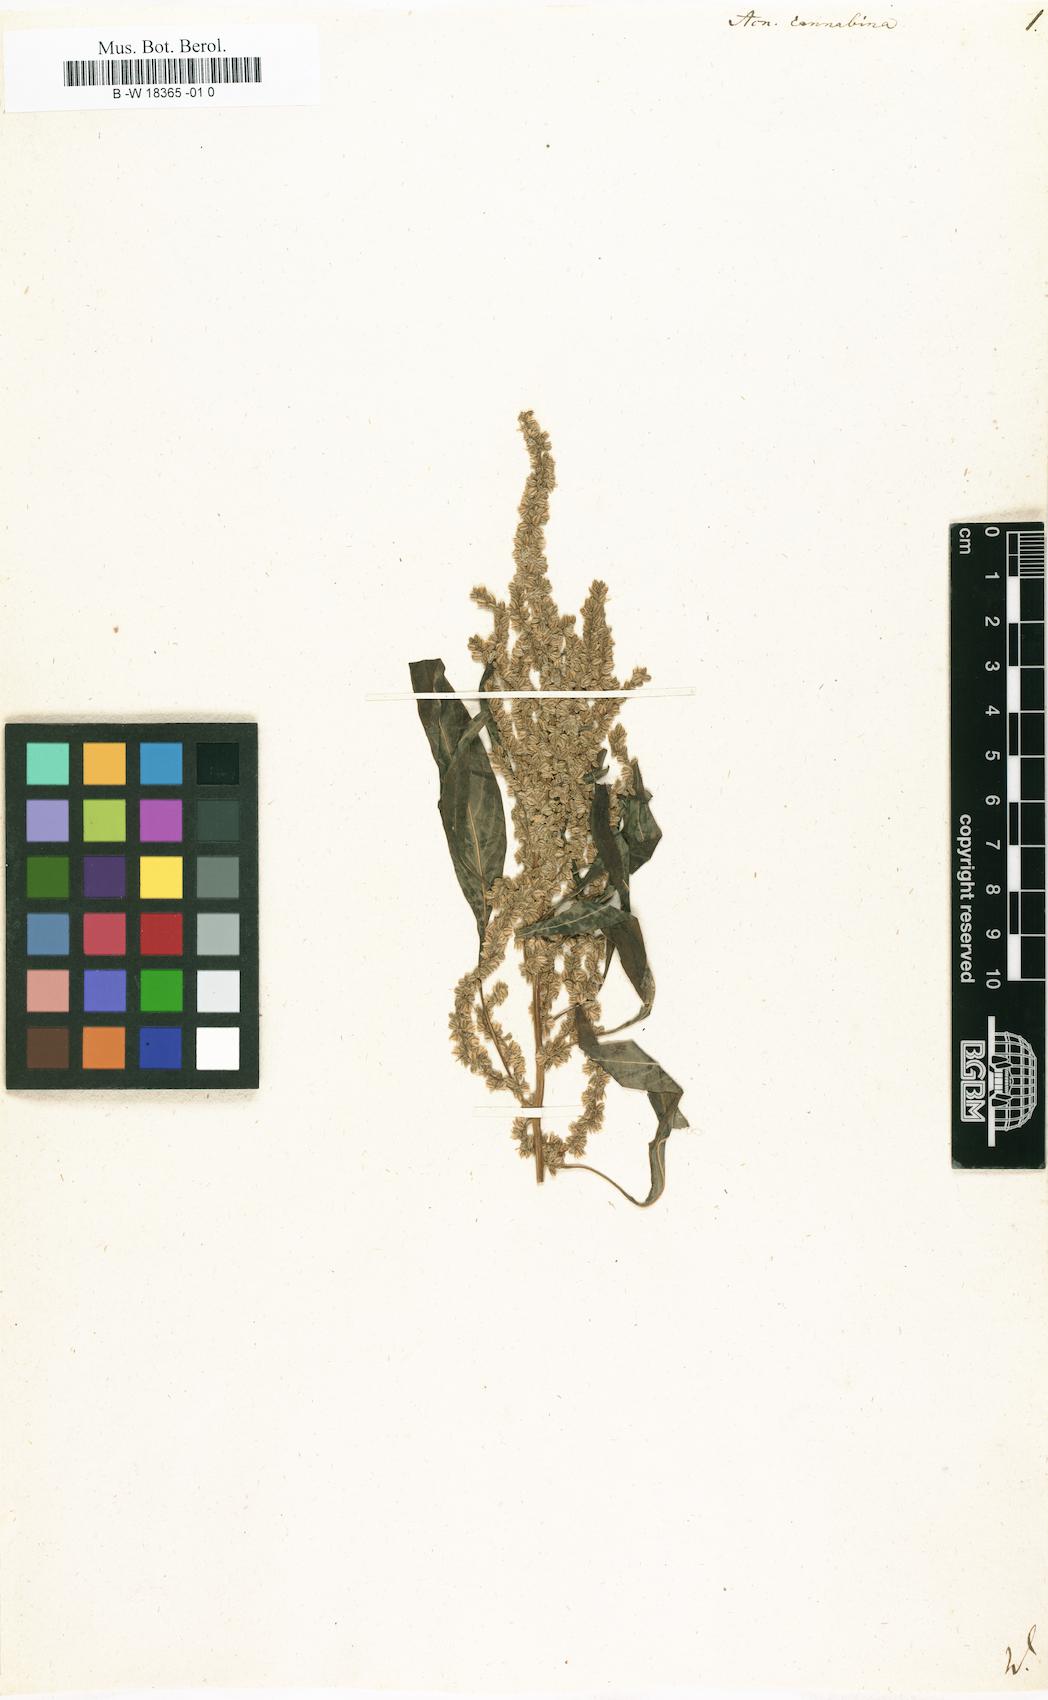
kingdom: Plantae
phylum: Tracheophyta
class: Magnoliopsida
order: Caryophyllales
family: Amaranthaceae
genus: Amaranthus
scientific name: Amaranthus cannabinus
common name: Salt-marsh water-hemp
